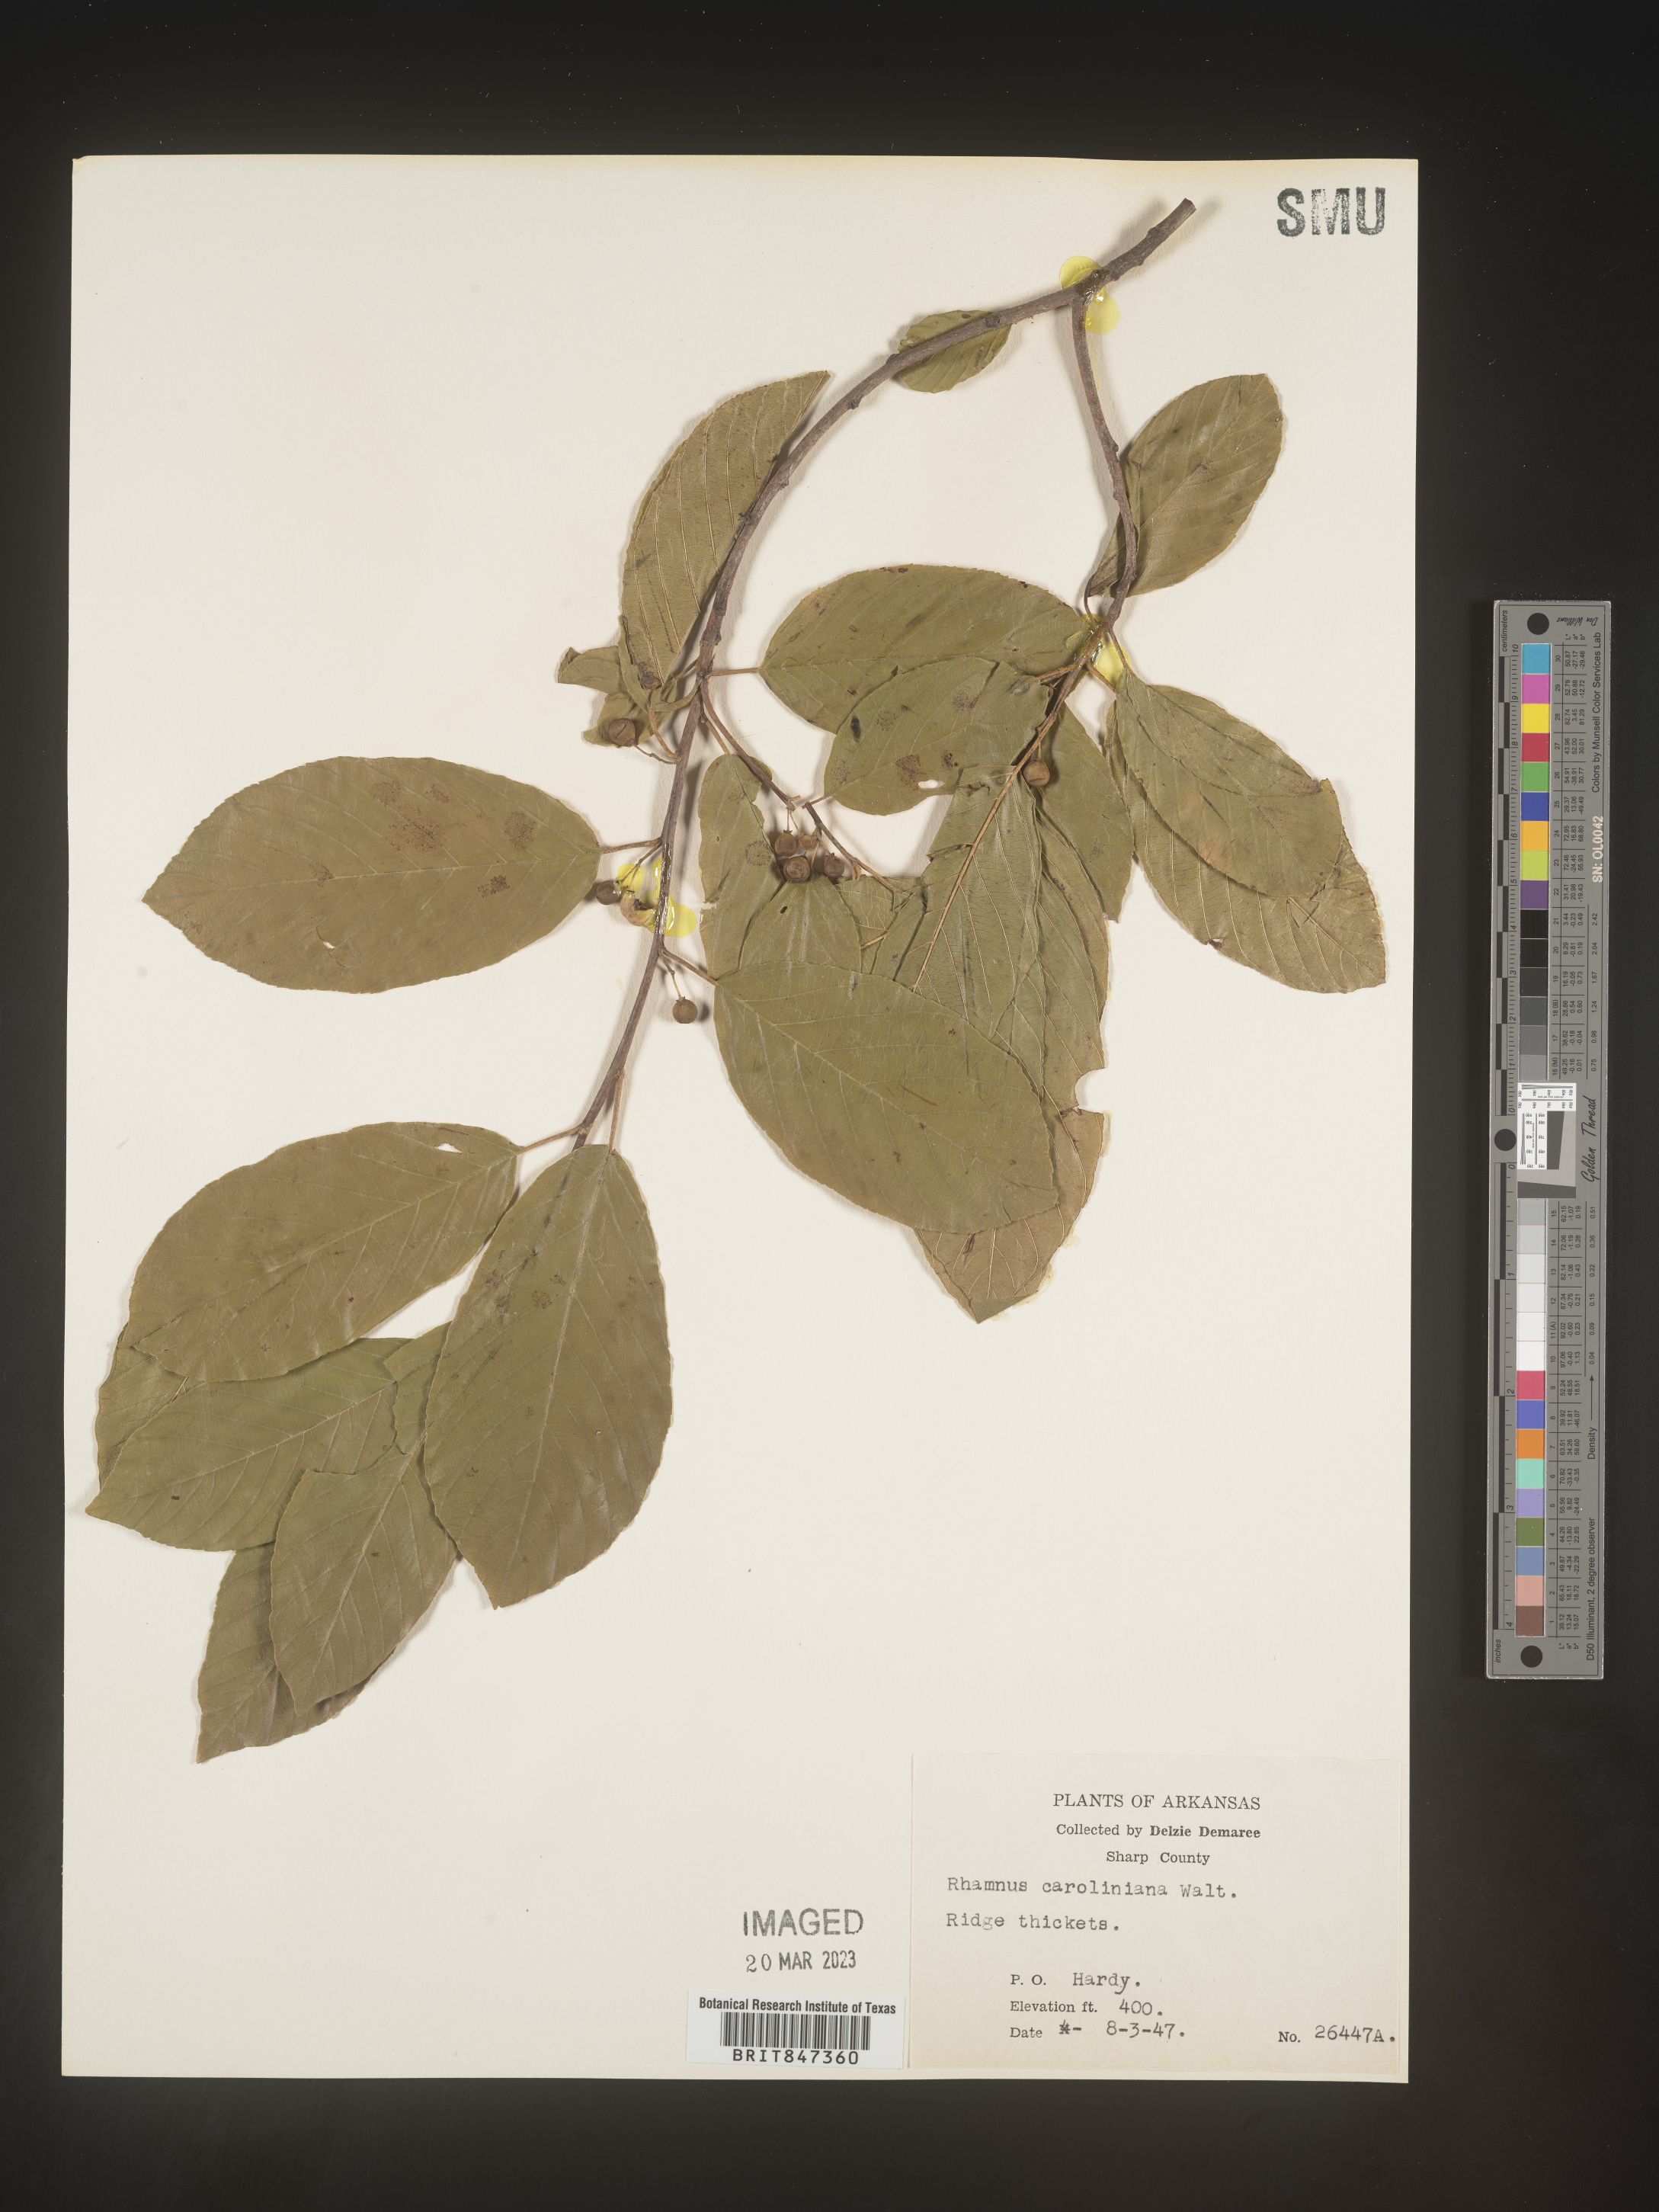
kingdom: Plantae
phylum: Tracheophyta
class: Magnoliopsida
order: Rosales
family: Rhamnaceae
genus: Frangula
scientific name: Frangula caroliniana
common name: Carolina buckthorn
